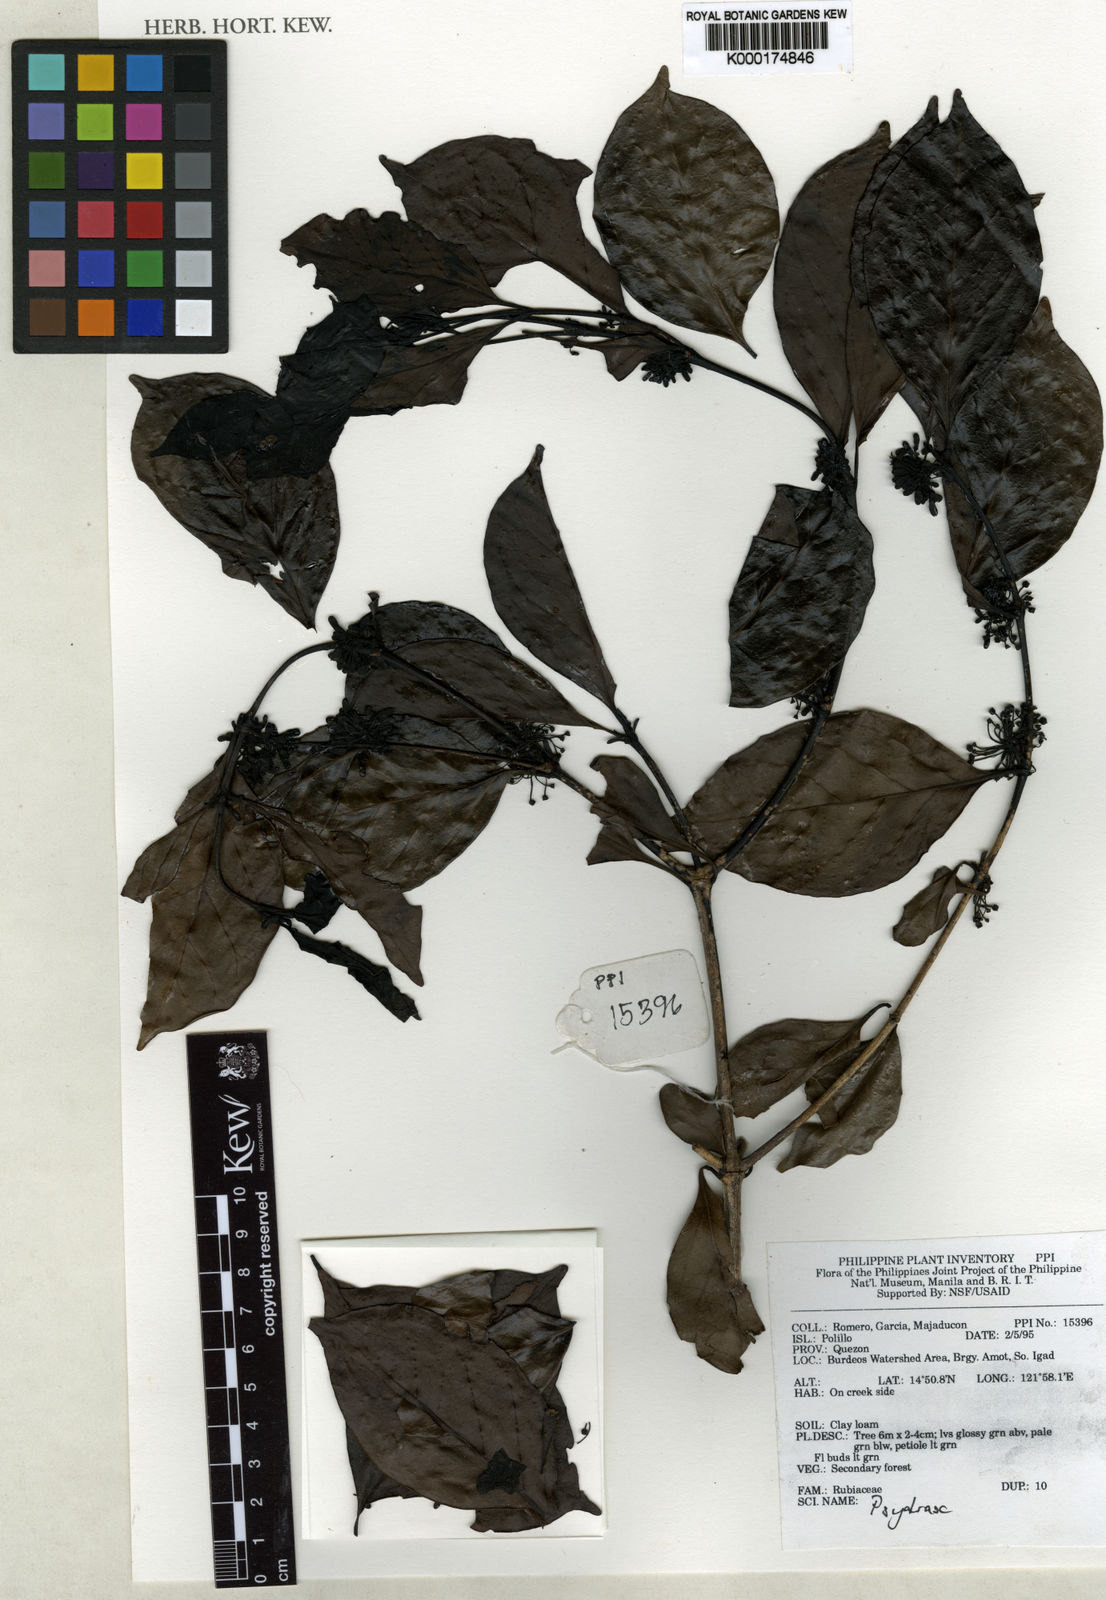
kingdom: Plantae
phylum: Tracheophyta
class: Magnoliopsida
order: Gentianales
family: Rubiaceae
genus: Psydrax
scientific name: Psydrax
